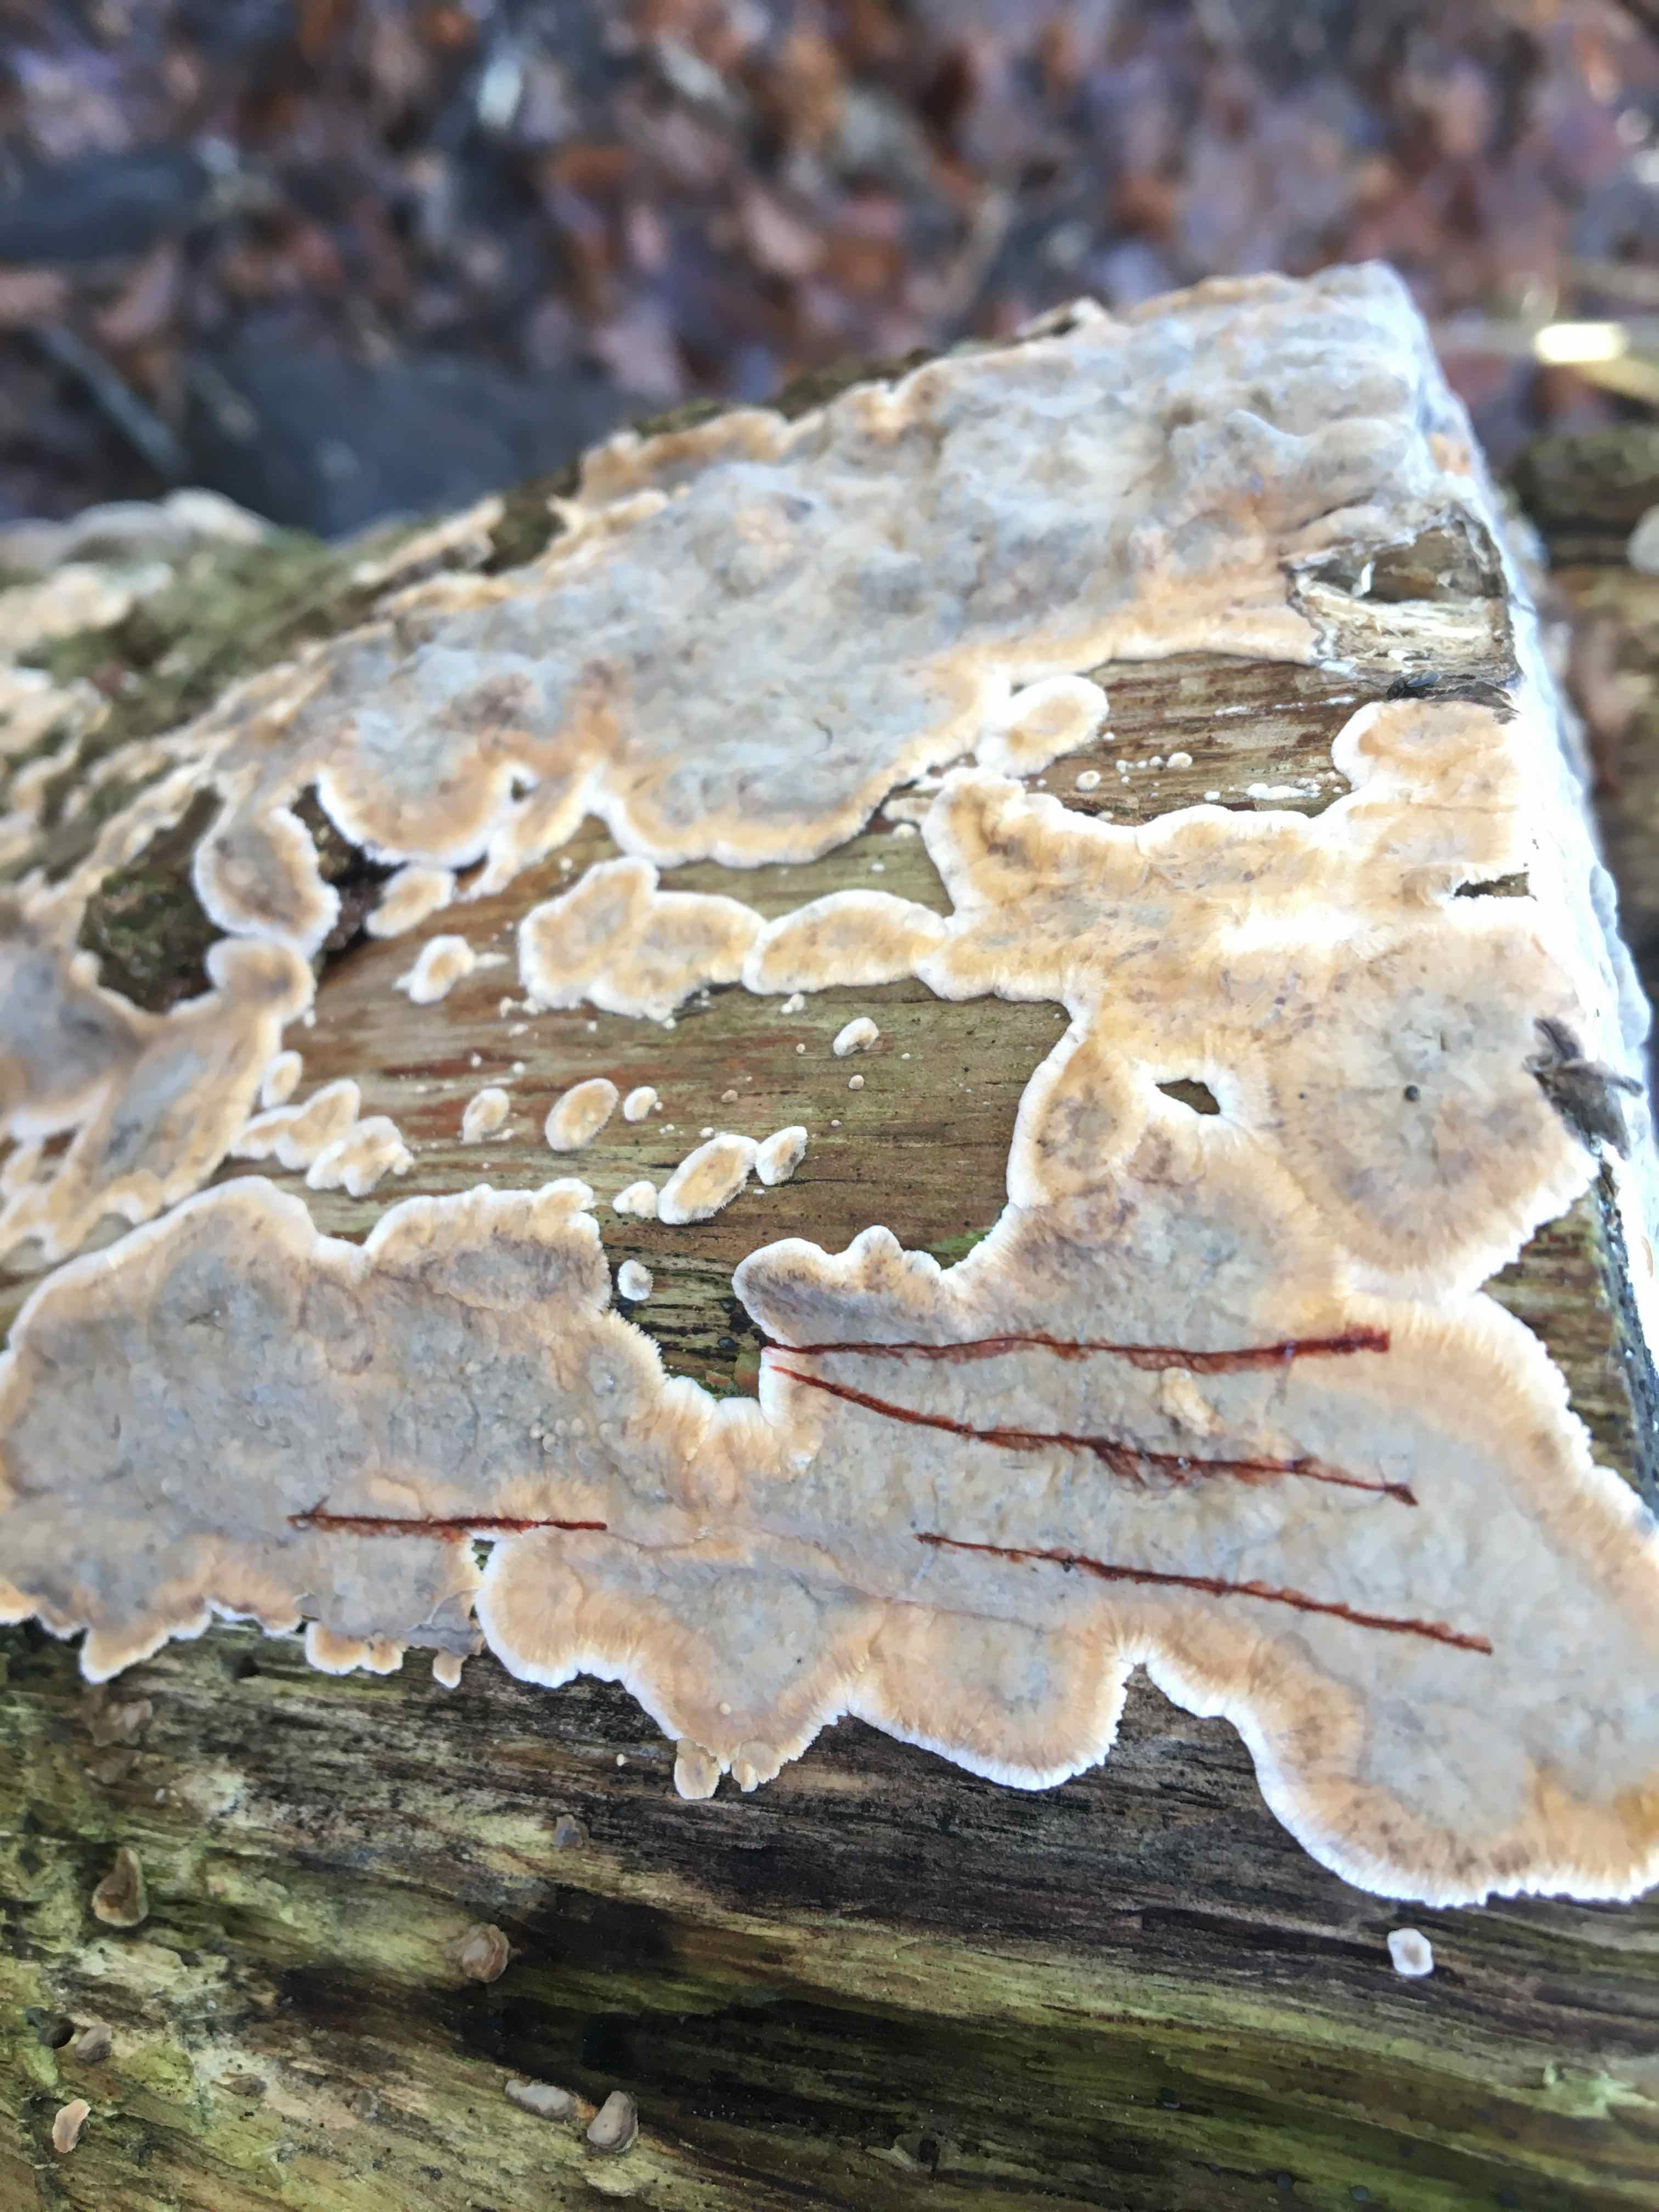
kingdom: Fungi
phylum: Basidiomycota
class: Agaricomycetes
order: Russulales
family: Stereaceae
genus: Stereum
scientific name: Stereum rugosum
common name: rynket lædersvamp
